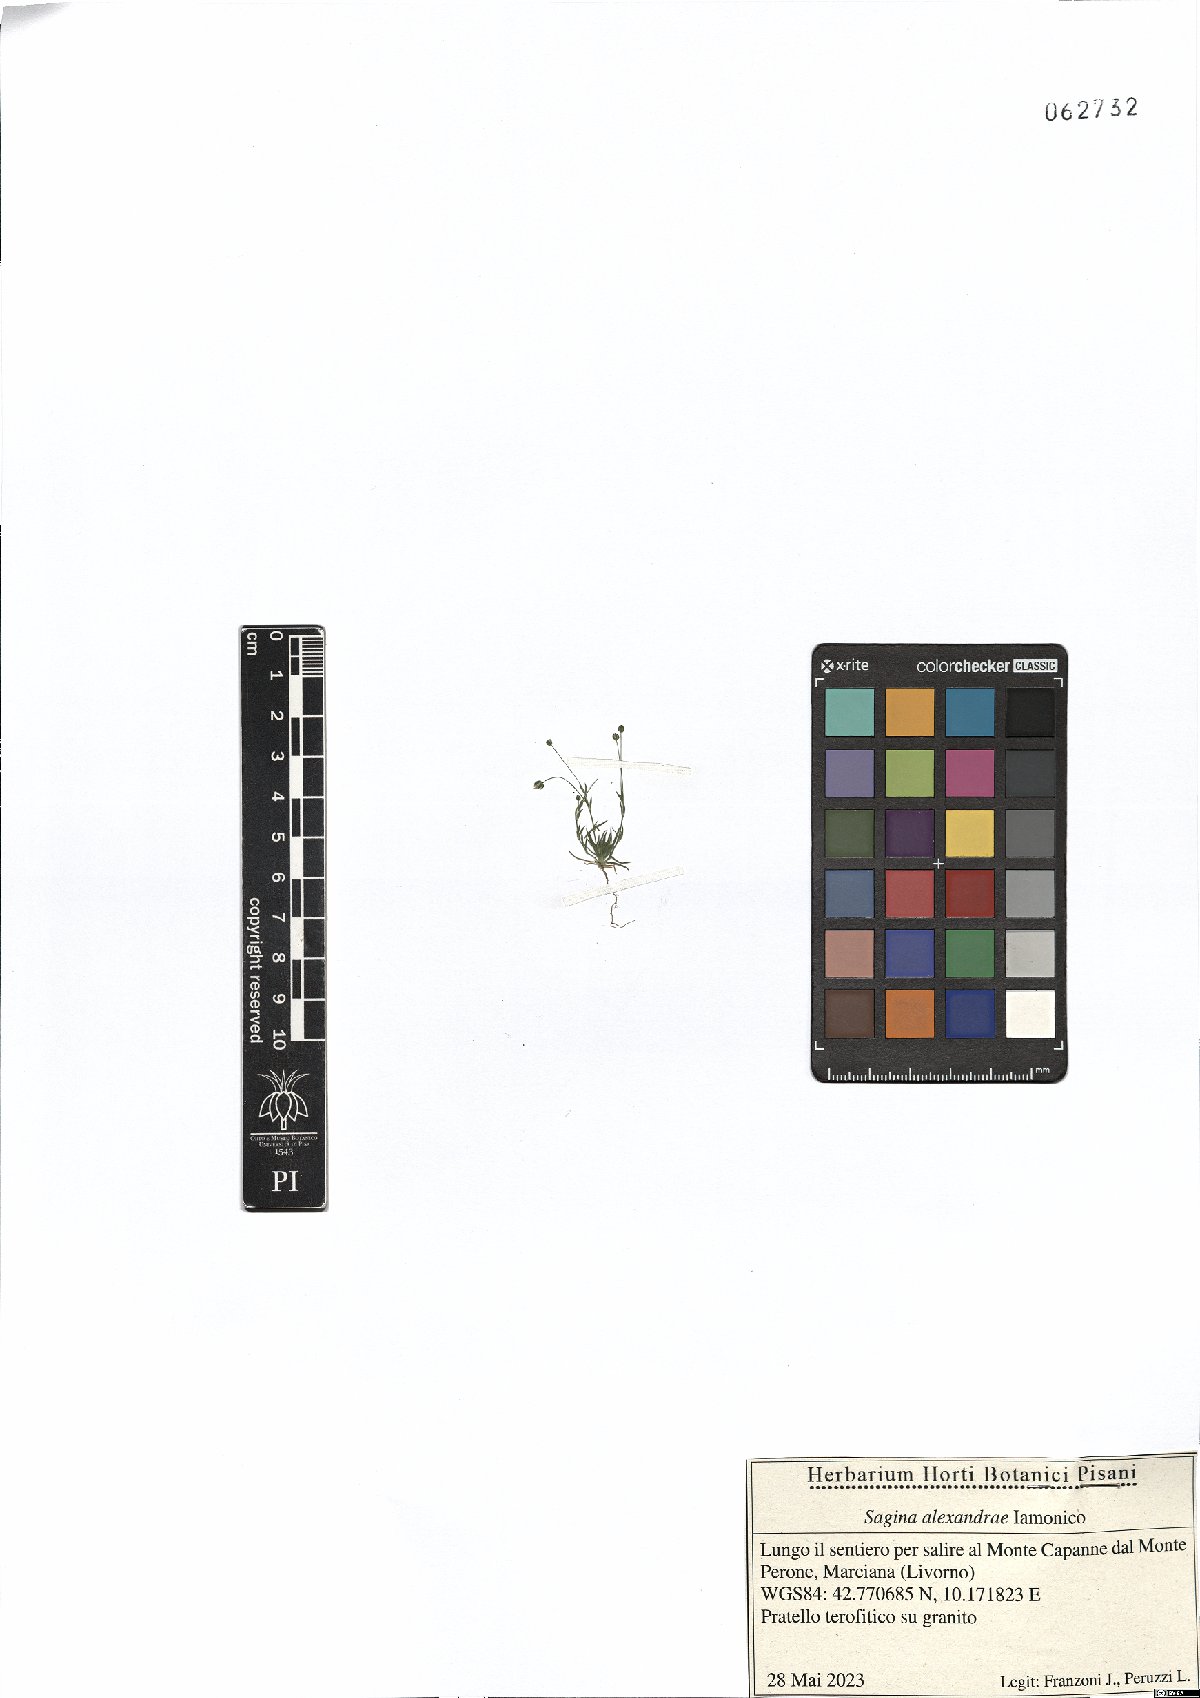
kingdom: Plantae
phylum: Tracheophyta
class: Magnoliopsida
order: Caryophyllales
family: Caryophyllaceae
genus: Sagina
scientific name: Sagina alexandrae
